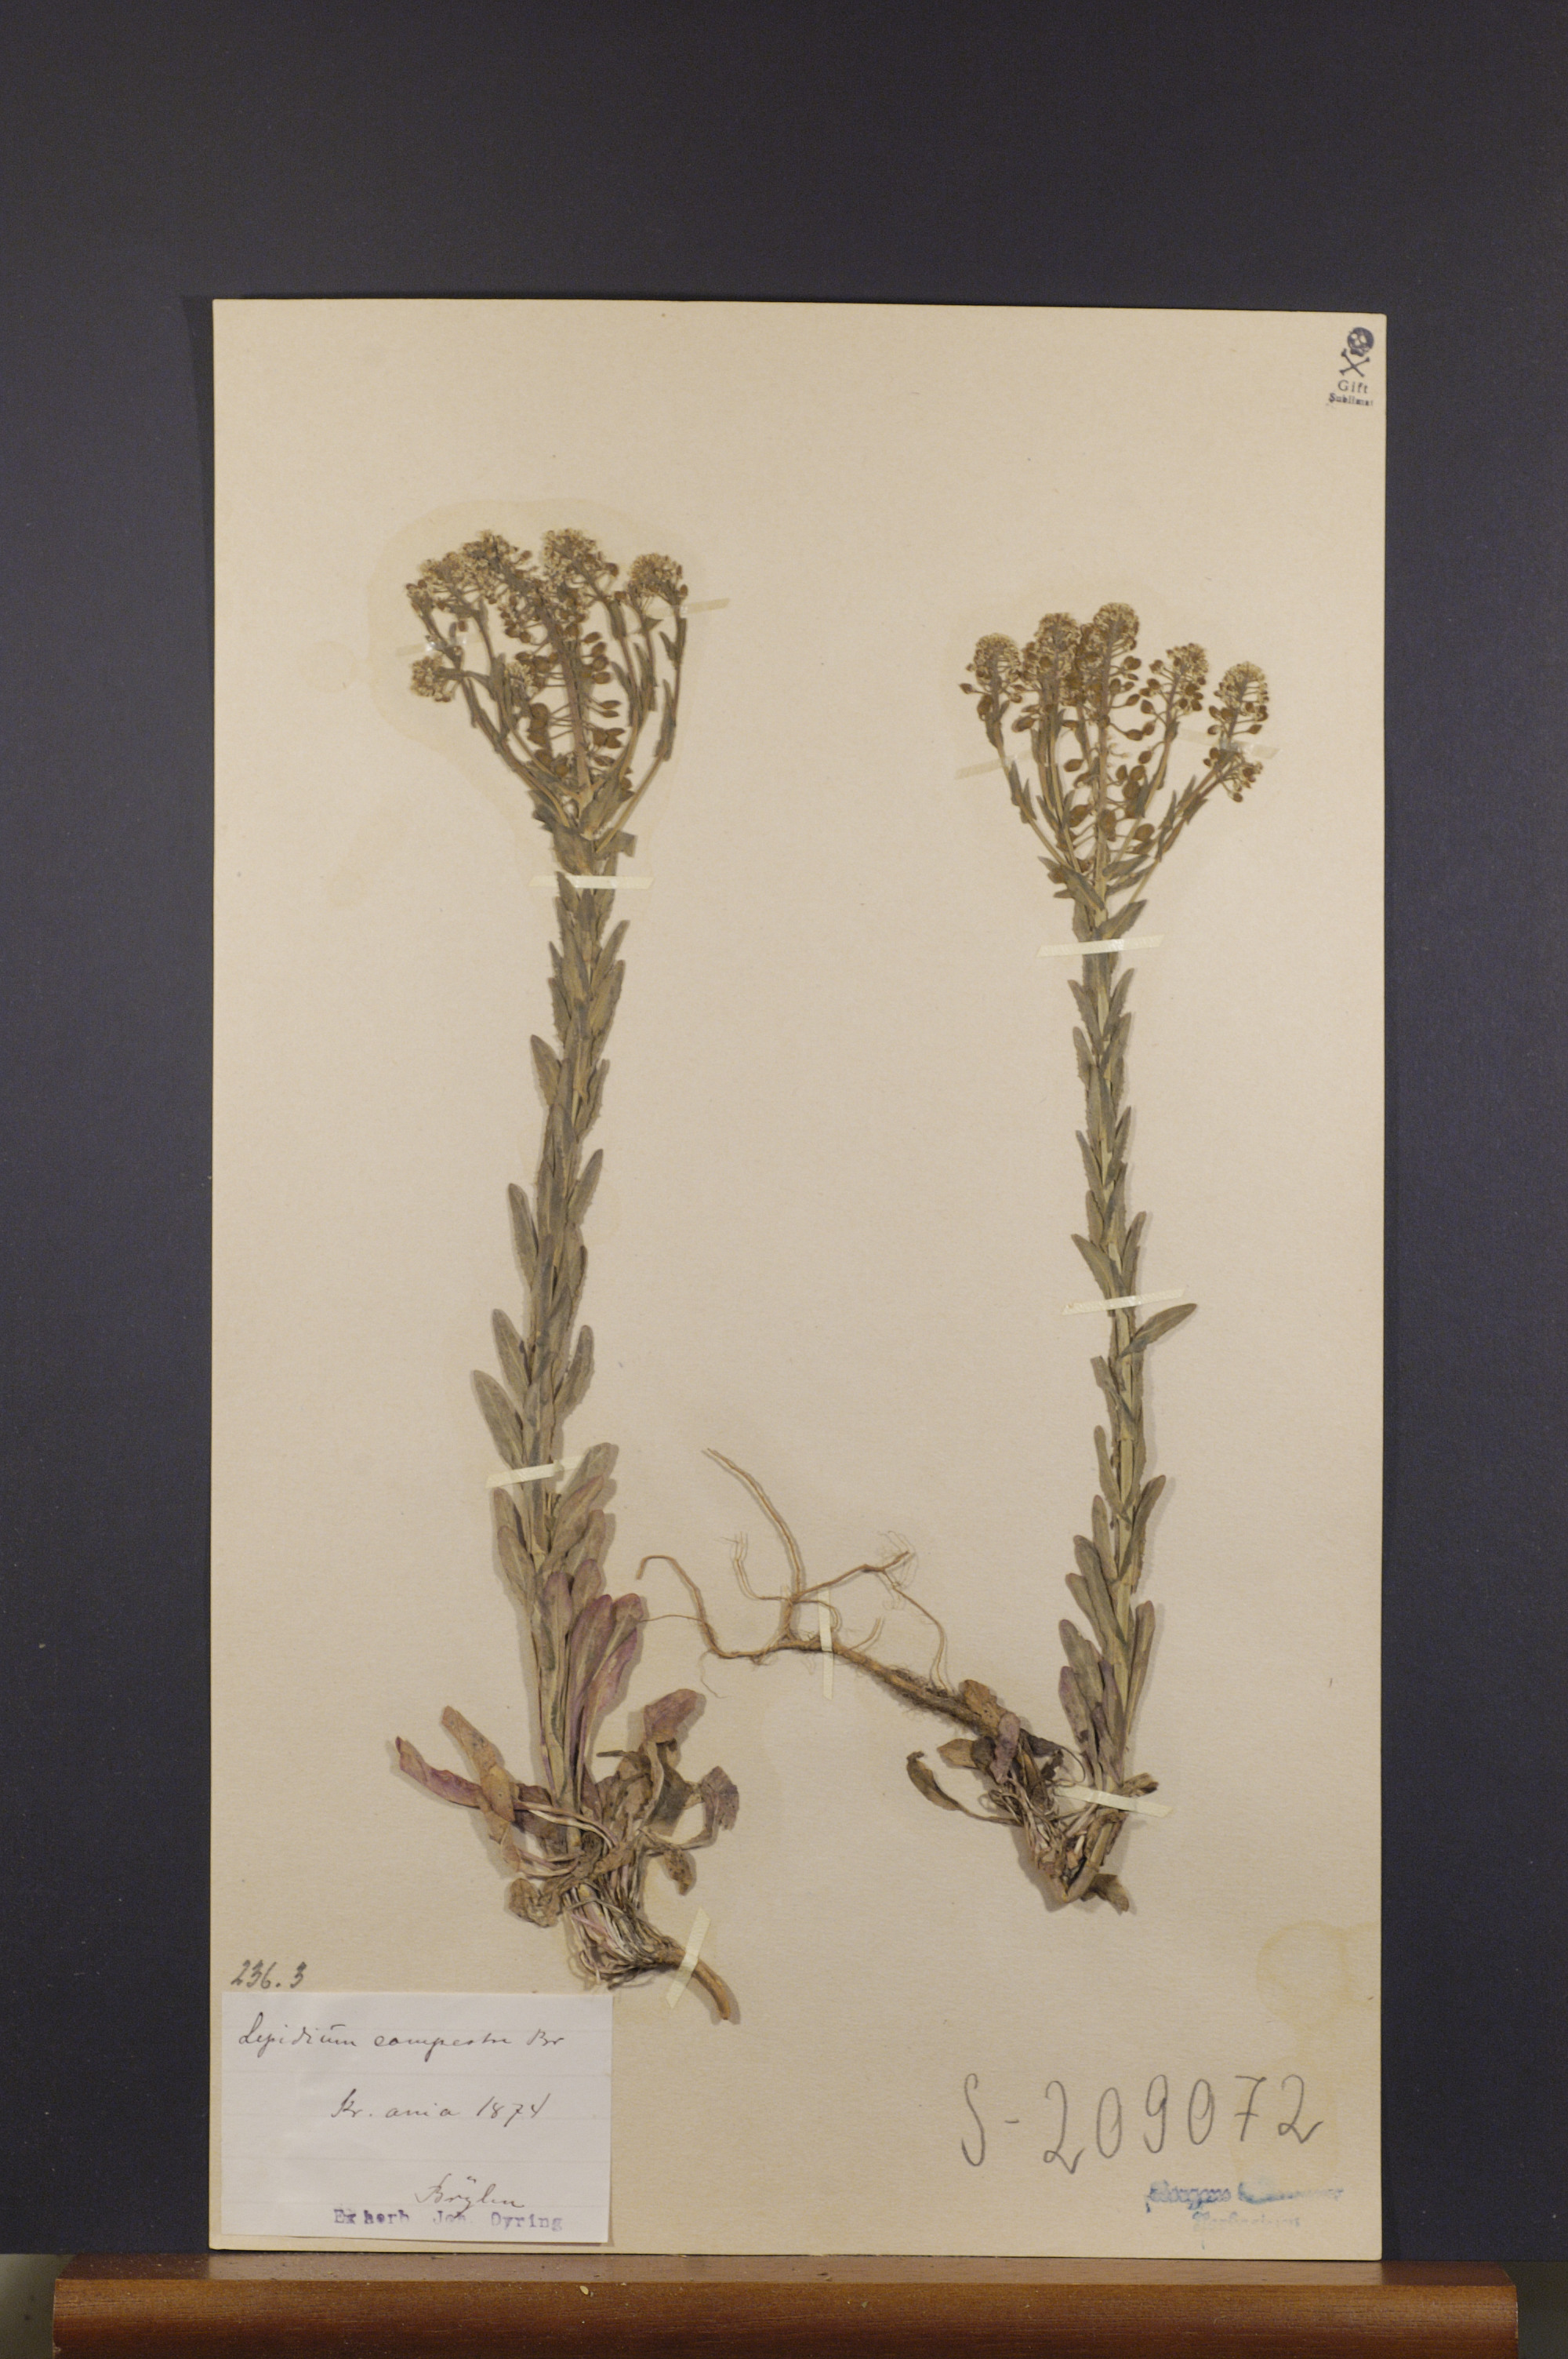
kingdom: Plantae
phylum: Tracheophyta
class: Magnoliopsida
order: Brassicales
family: Brassicaceae
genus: Lepidium
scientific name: Lepidium campestre
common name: Field pepperwort
